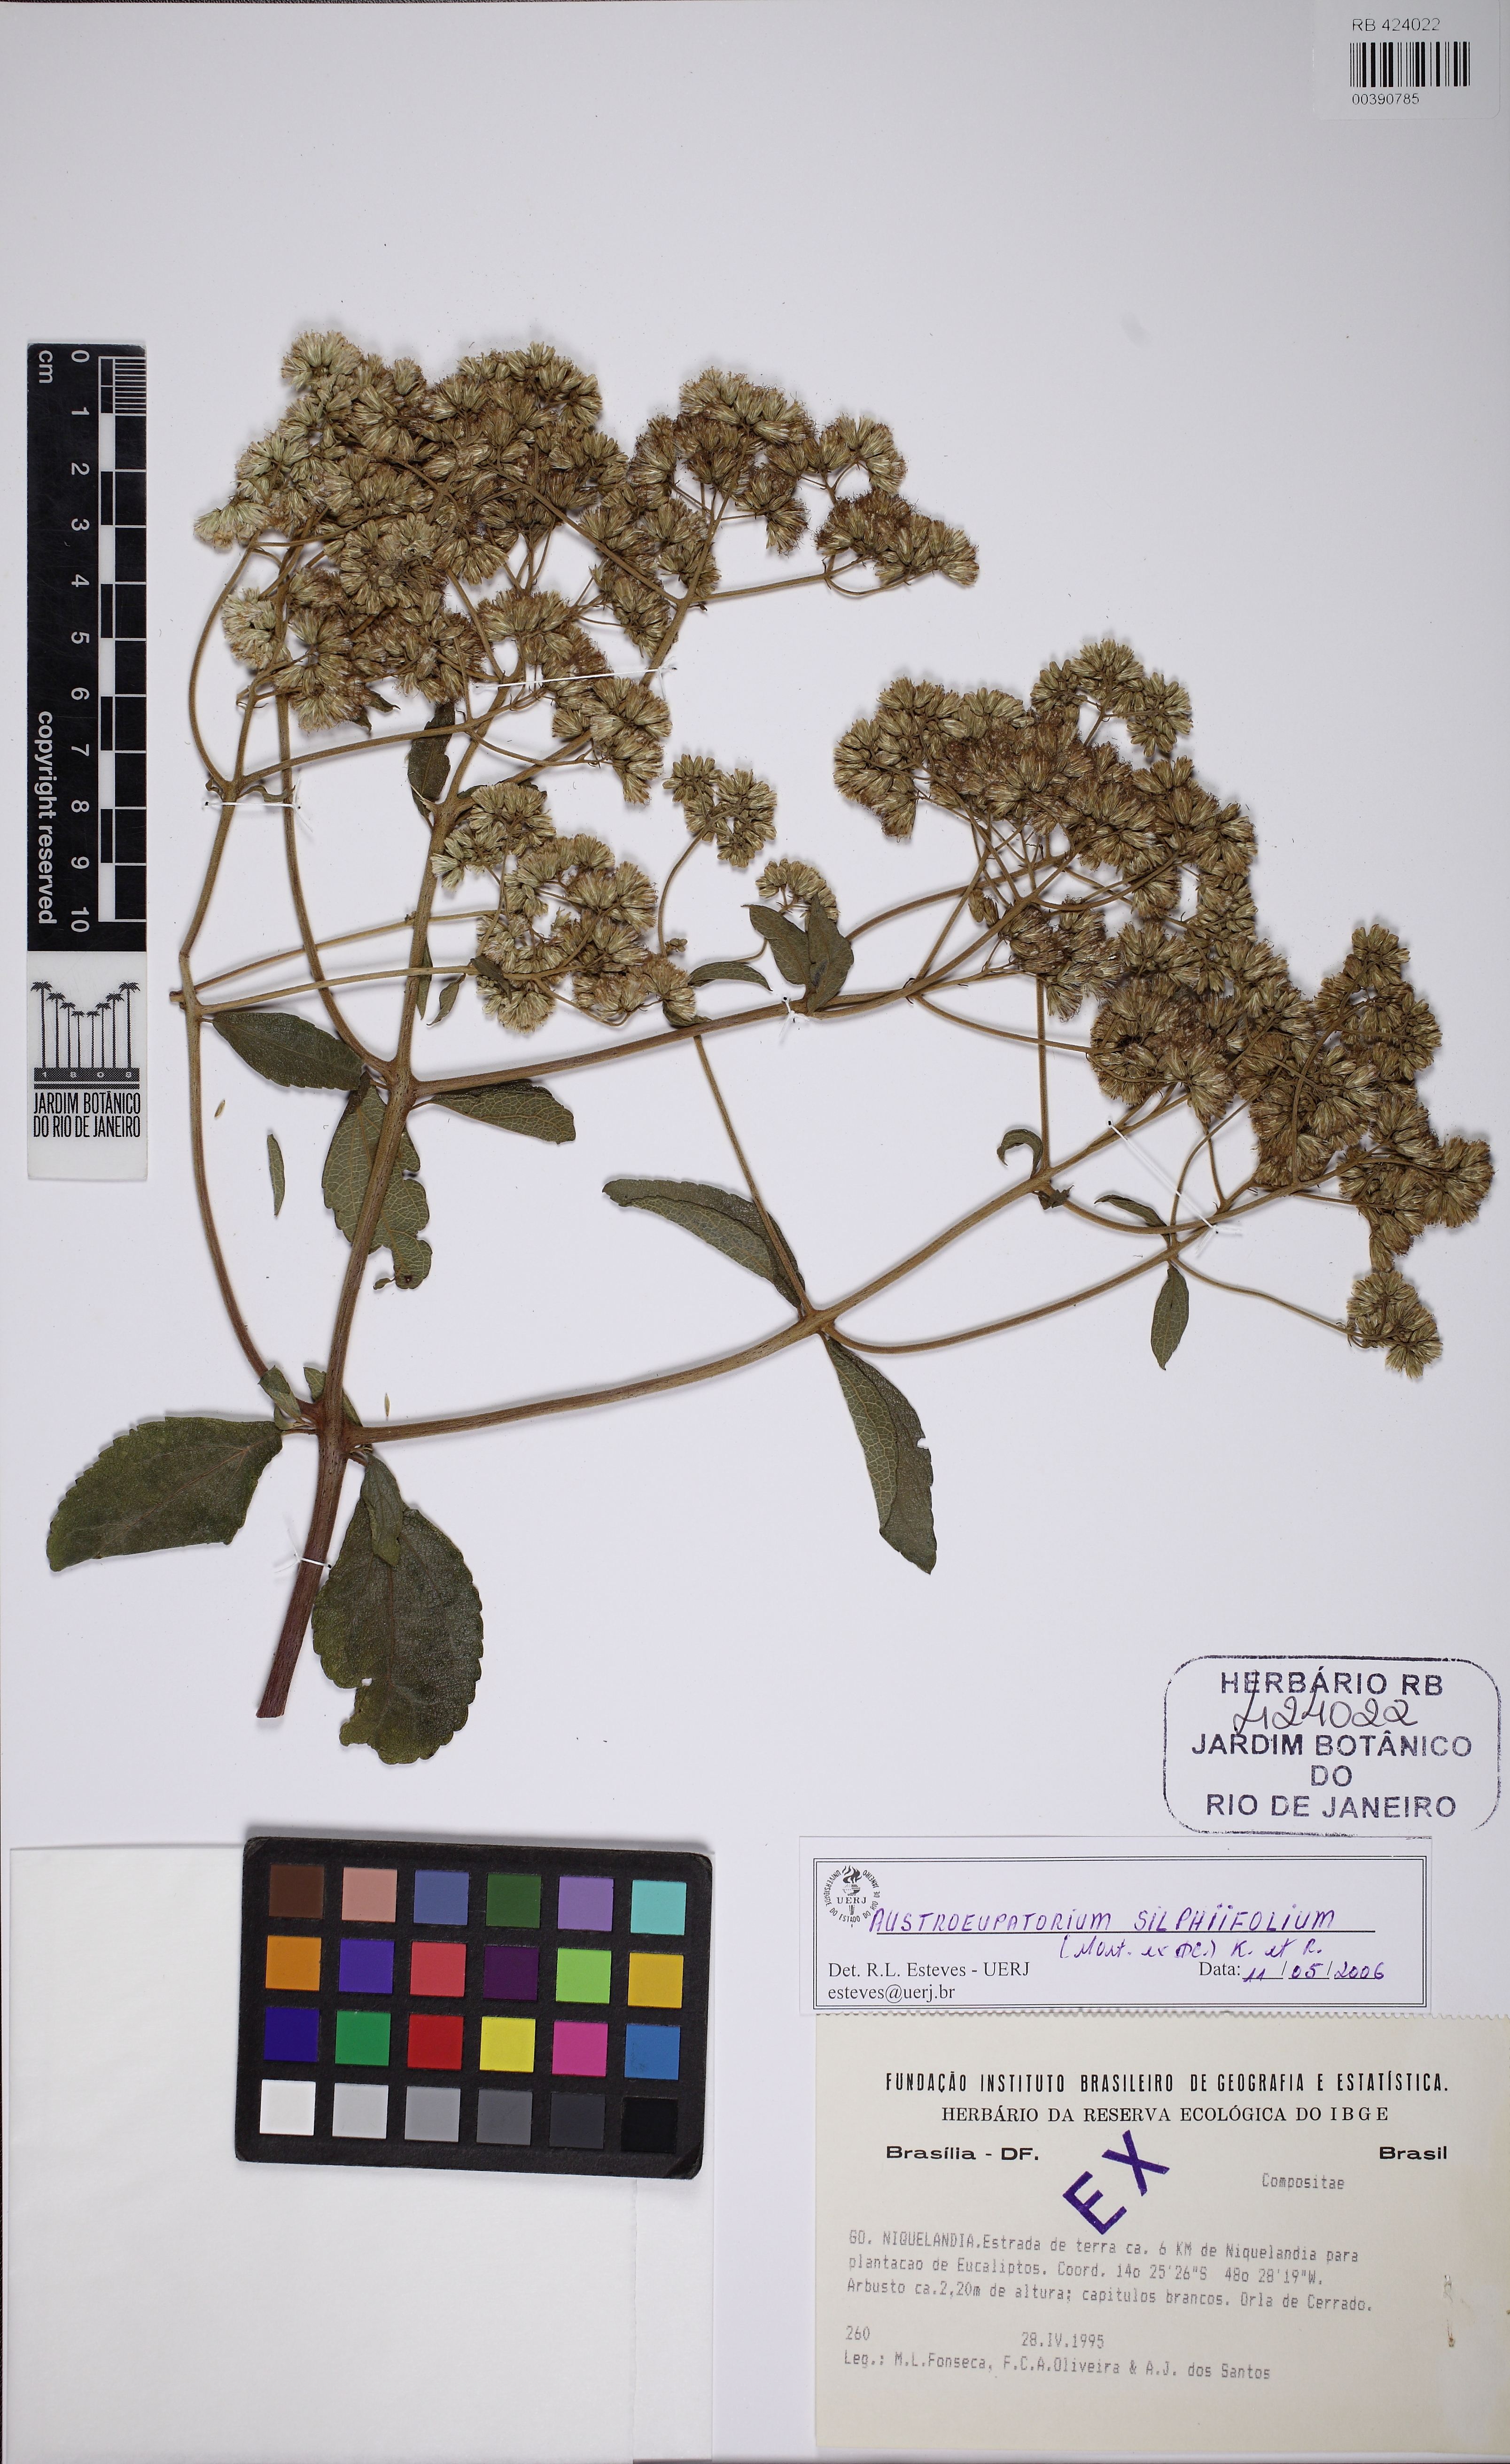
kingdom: Plantae
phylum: Tracheophyta
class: Magnoliopsida
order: Asterales
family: Asteraceae
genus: Austroeupatorium
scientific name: Austroeupatorium silphiifolium
